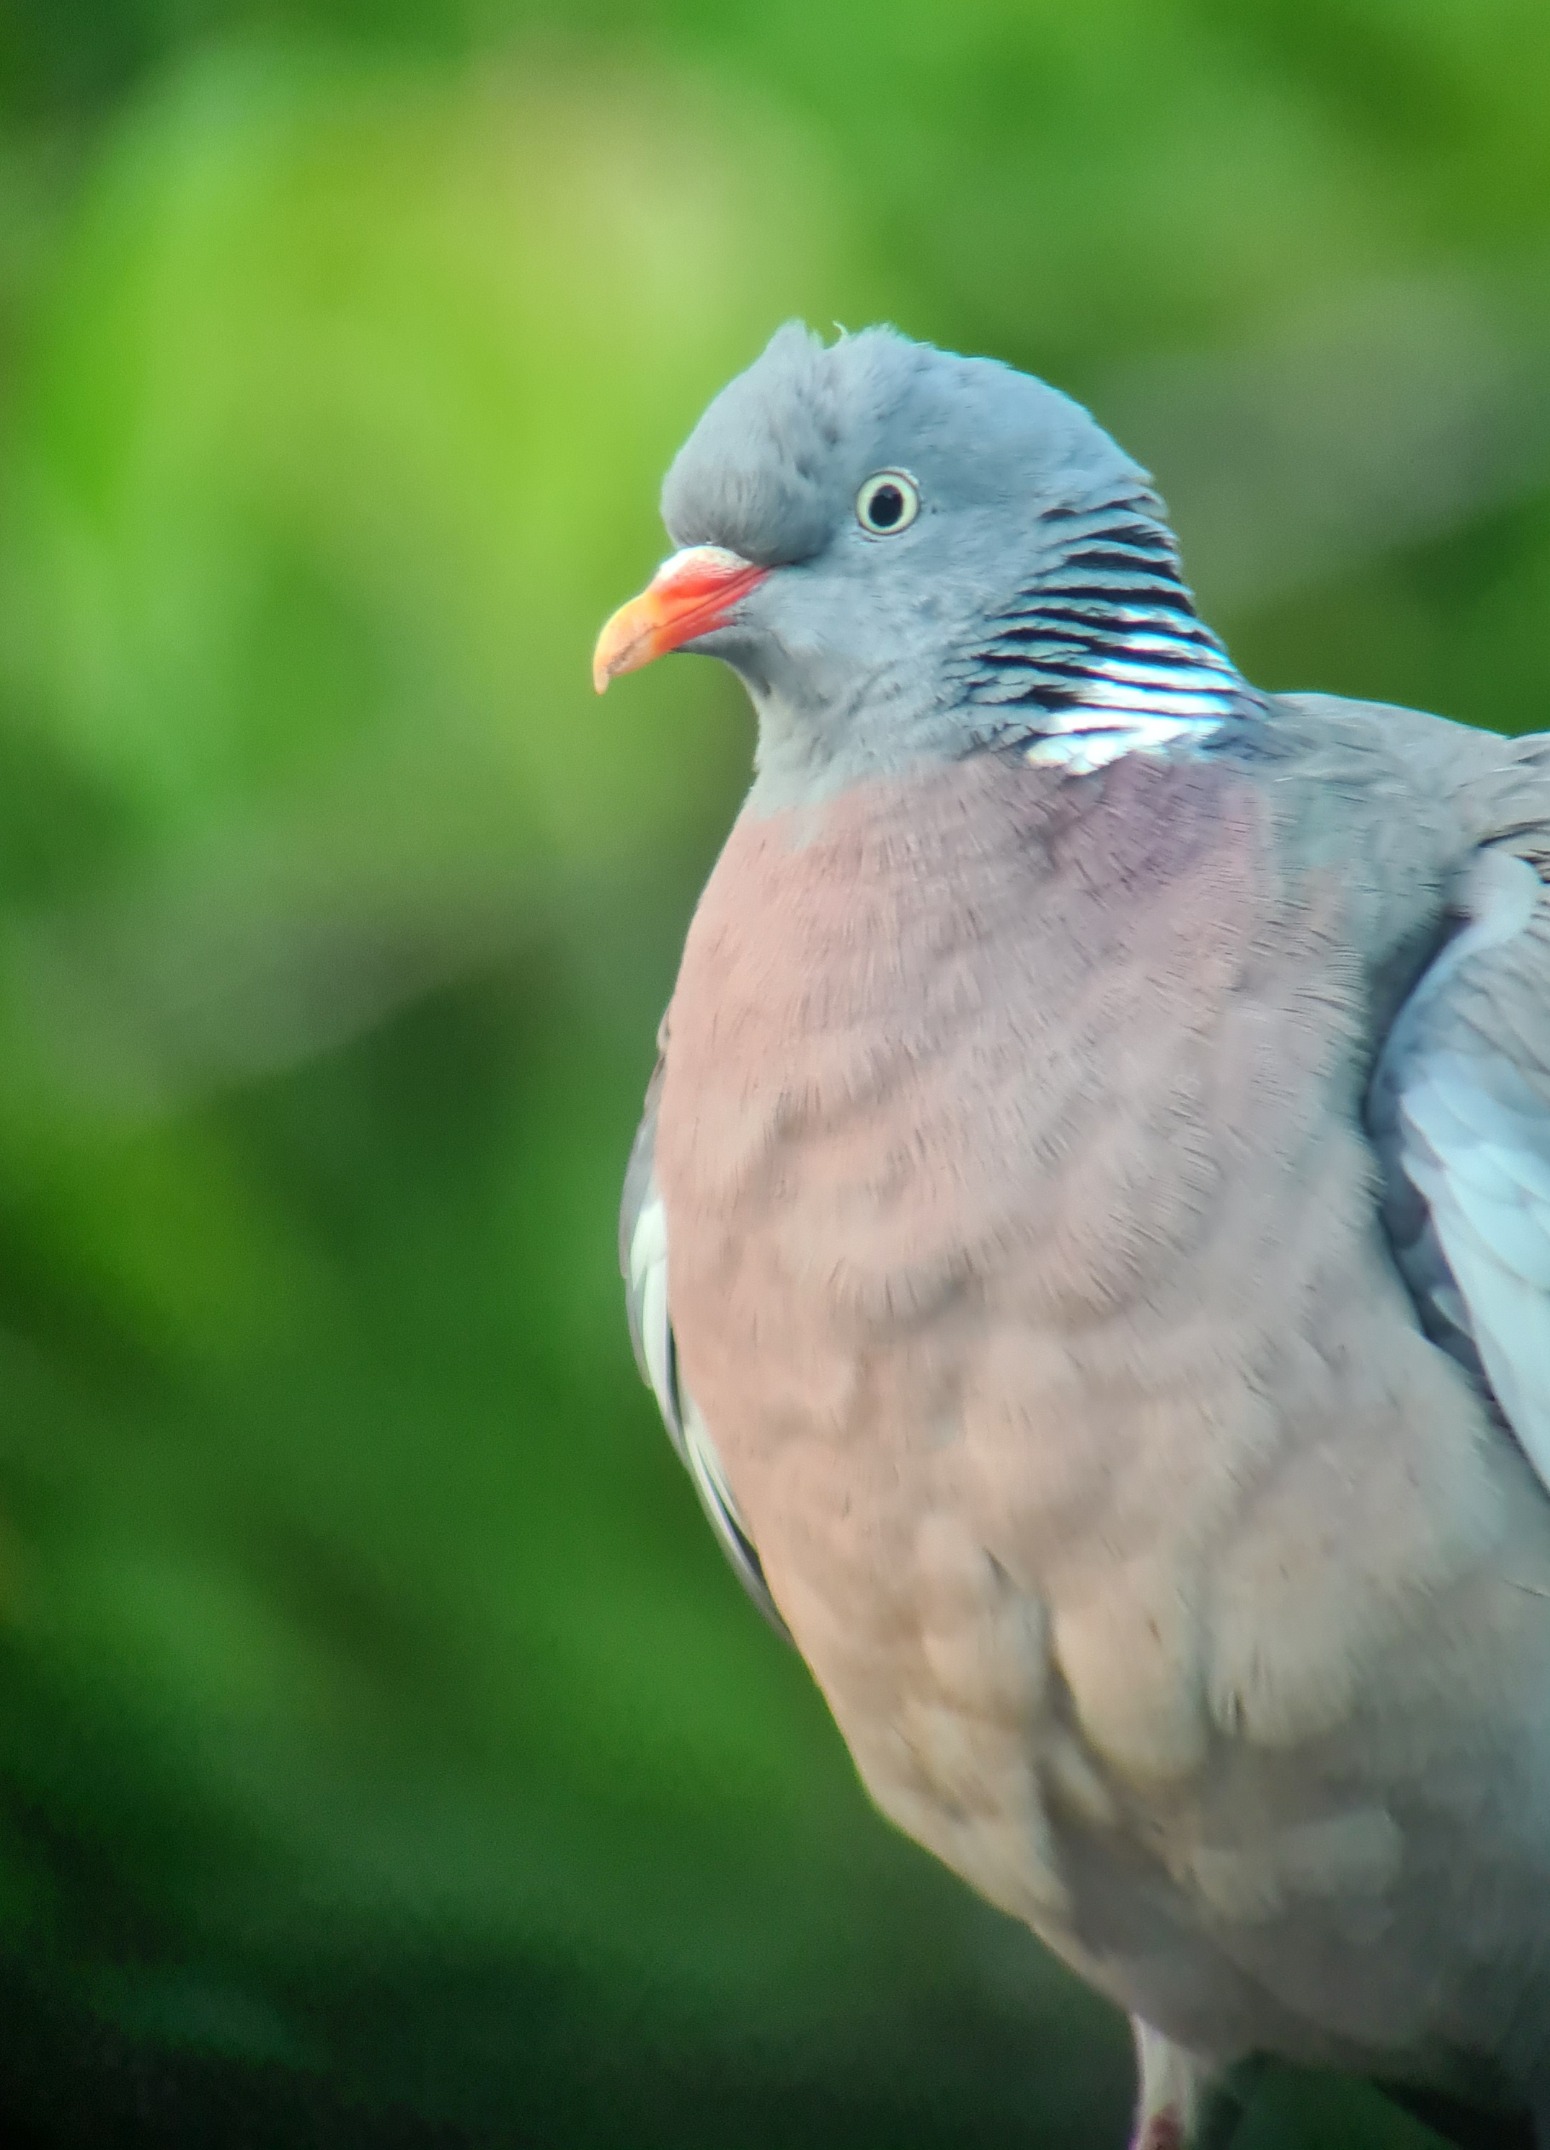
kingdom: Animalia
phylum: Chordata
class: Aves
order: Columbiformes
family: Columbidae
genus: Columba
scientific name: Columba palumbus
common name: Ringdue
